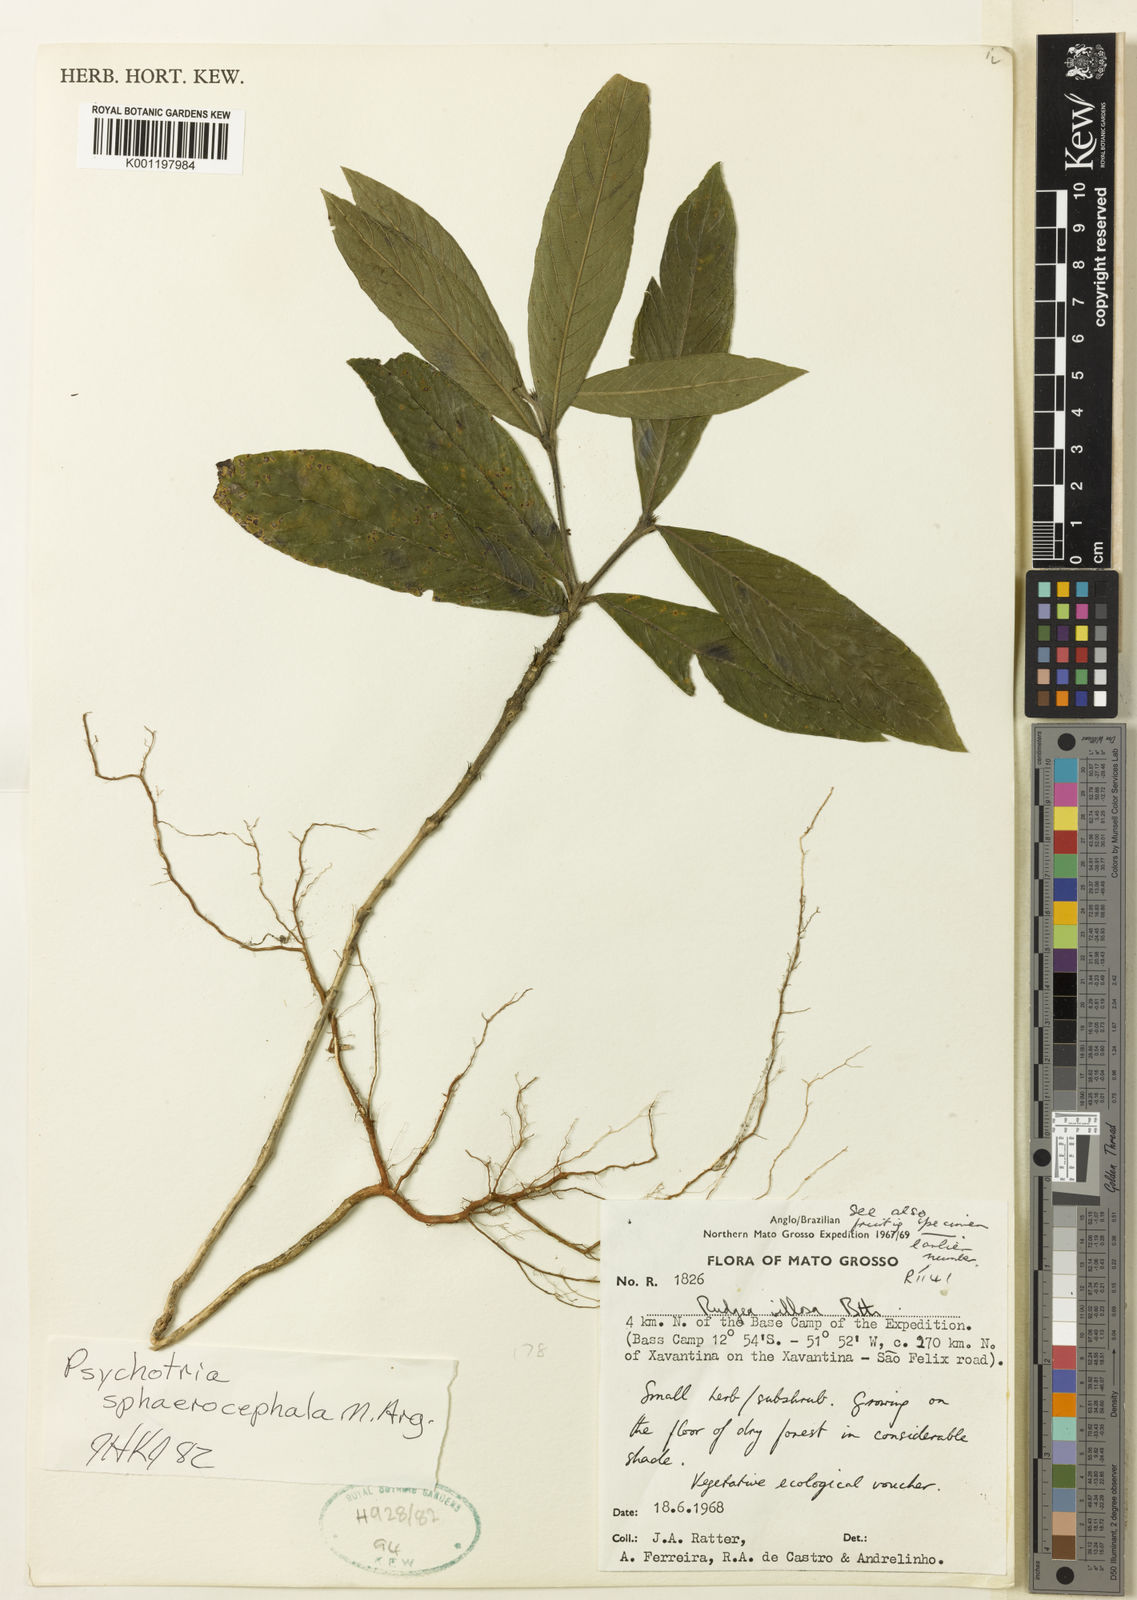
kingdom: Plantae
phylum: Tracheophyta
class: Magnoliopsida
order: Gentianales
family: Rubiaceae
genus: Psychotria
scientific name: Psychotria
